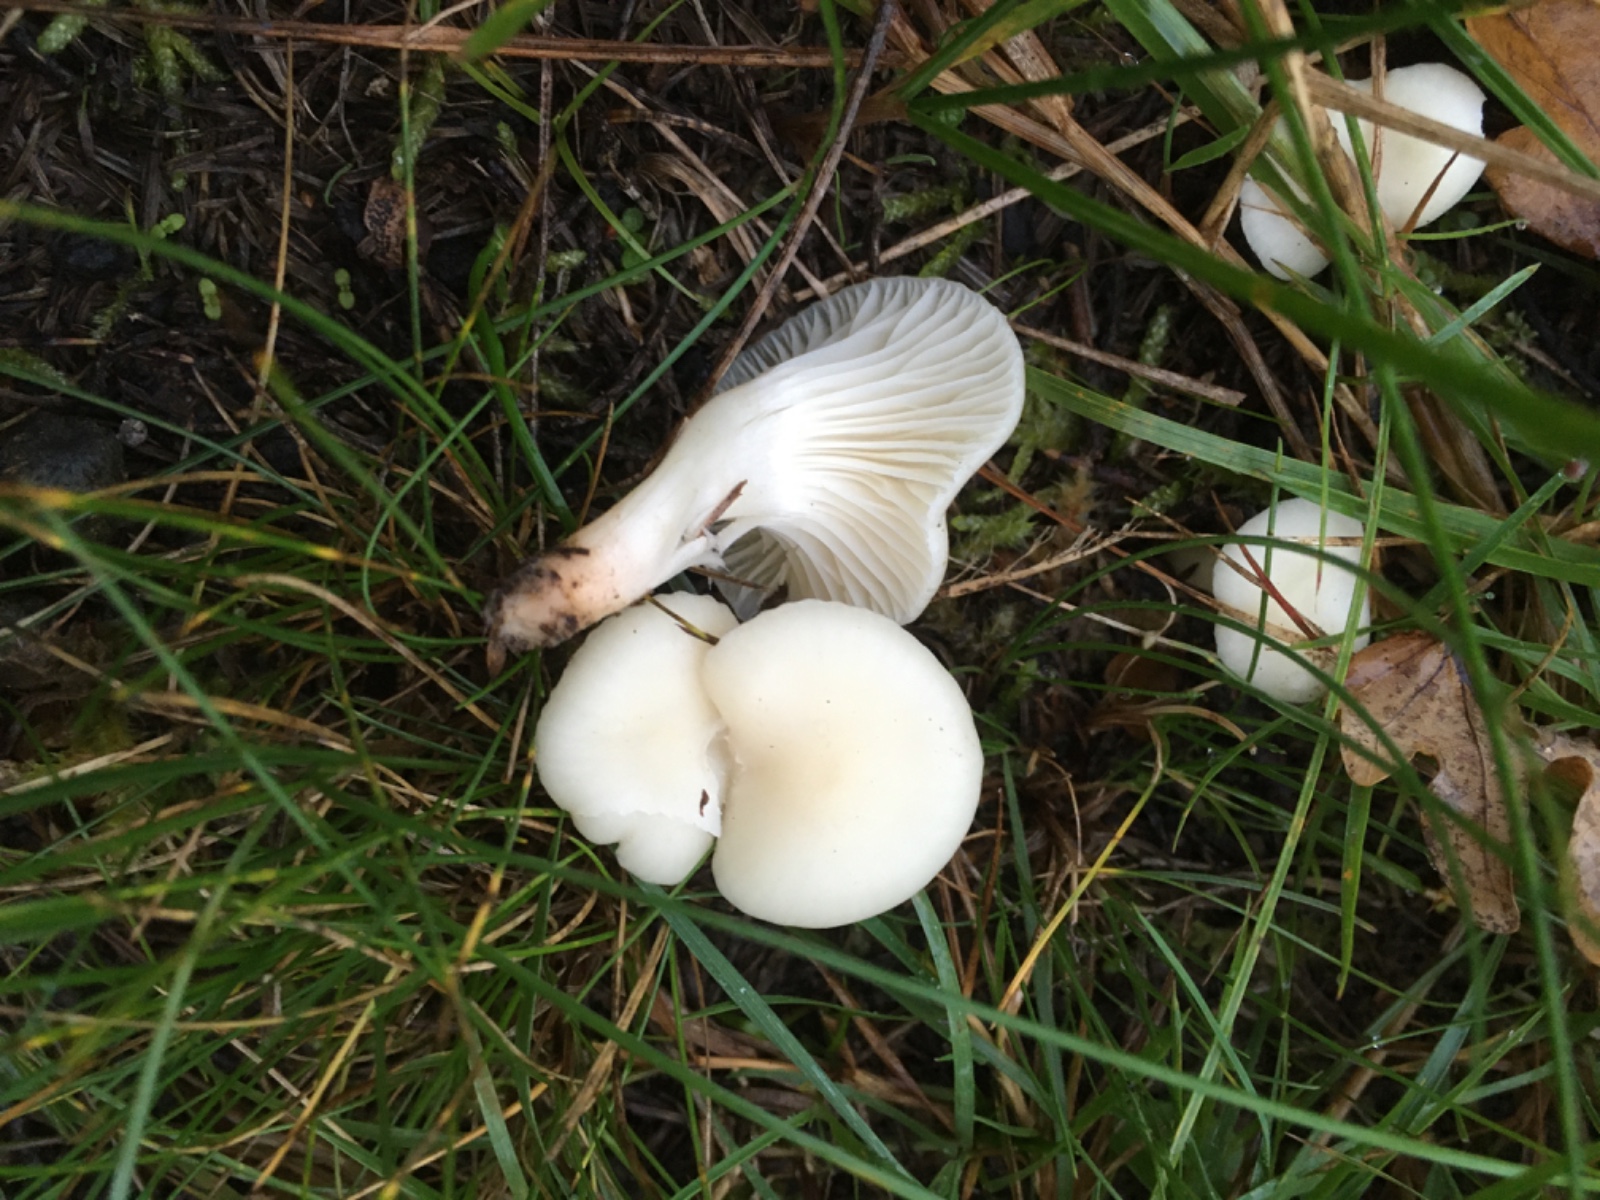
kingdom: Fungi
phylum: Basidiomycota
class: Agaricomycetes
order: Agaricales
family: Hygrophoraceae
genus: Cuphophyllus
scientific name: Cuphophyllus virgineus
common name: snehvid vokshat
